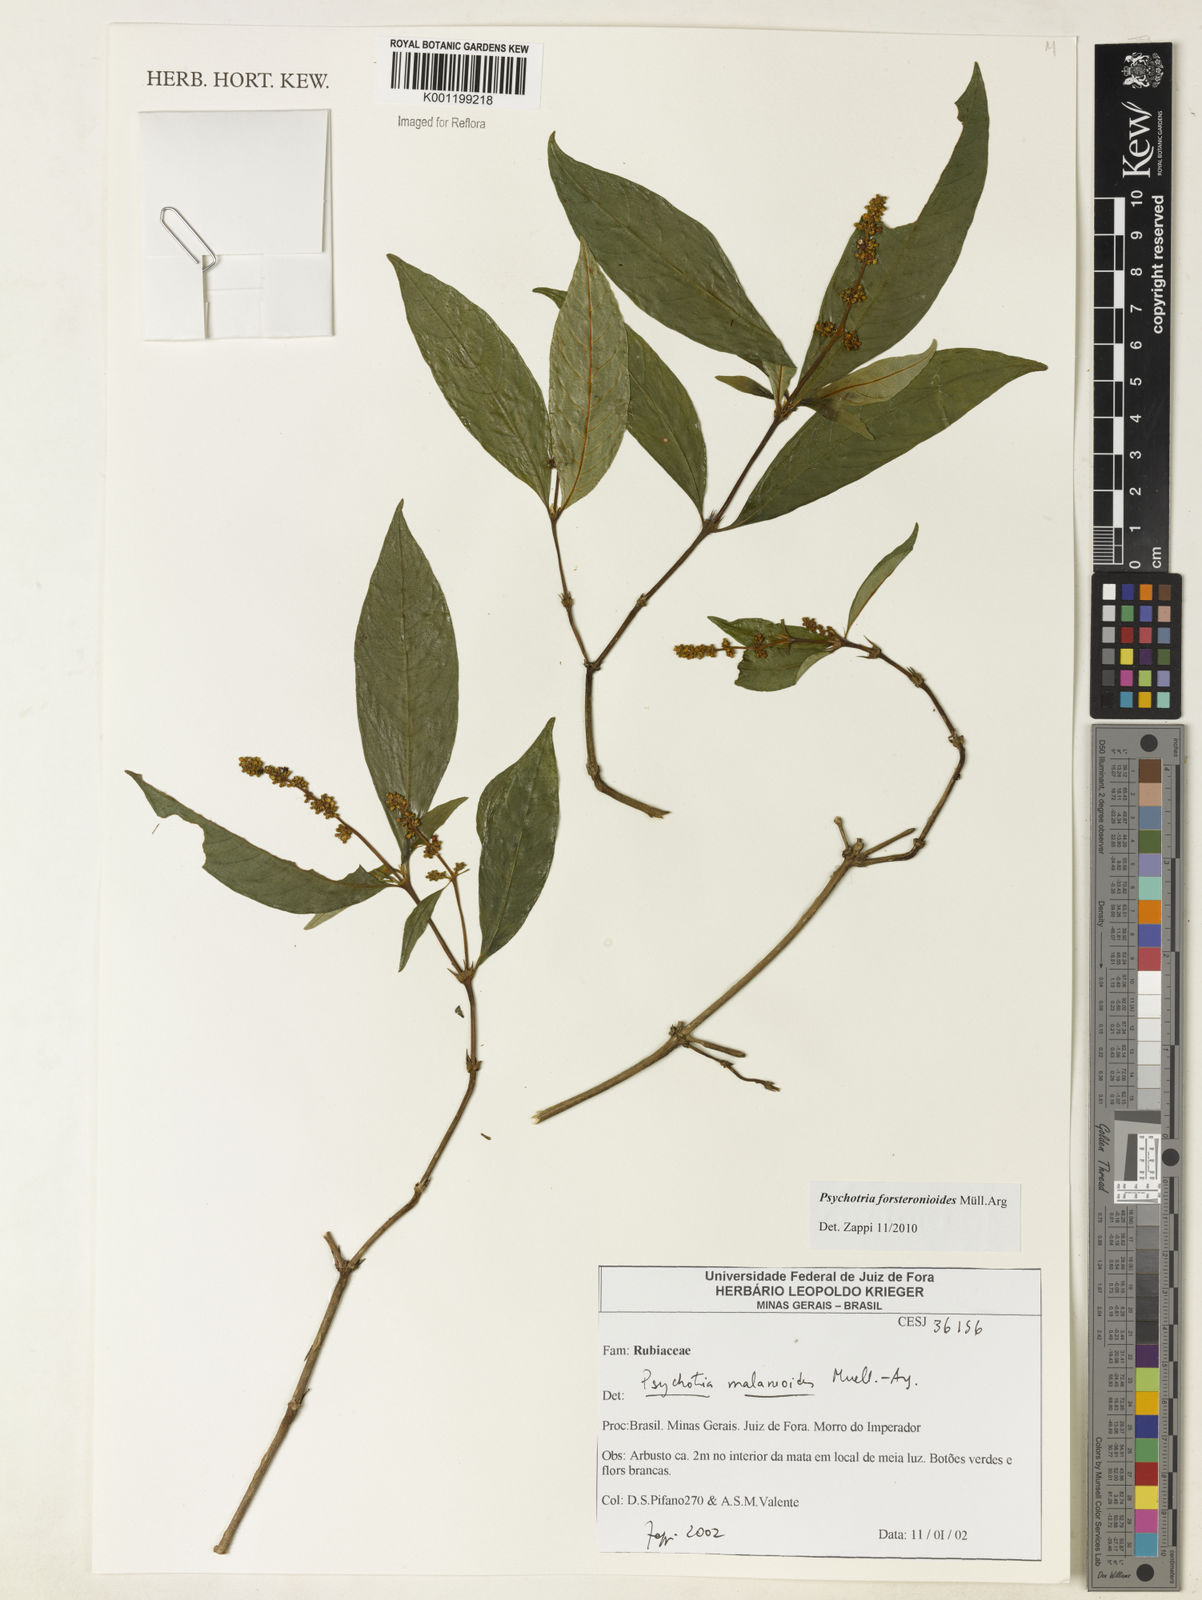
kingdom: Plantae
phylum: Tracheophyta
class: Magnoliopsida
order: Gentianales
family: Rubiaceae
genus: Psychotria
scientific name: Psychotria
